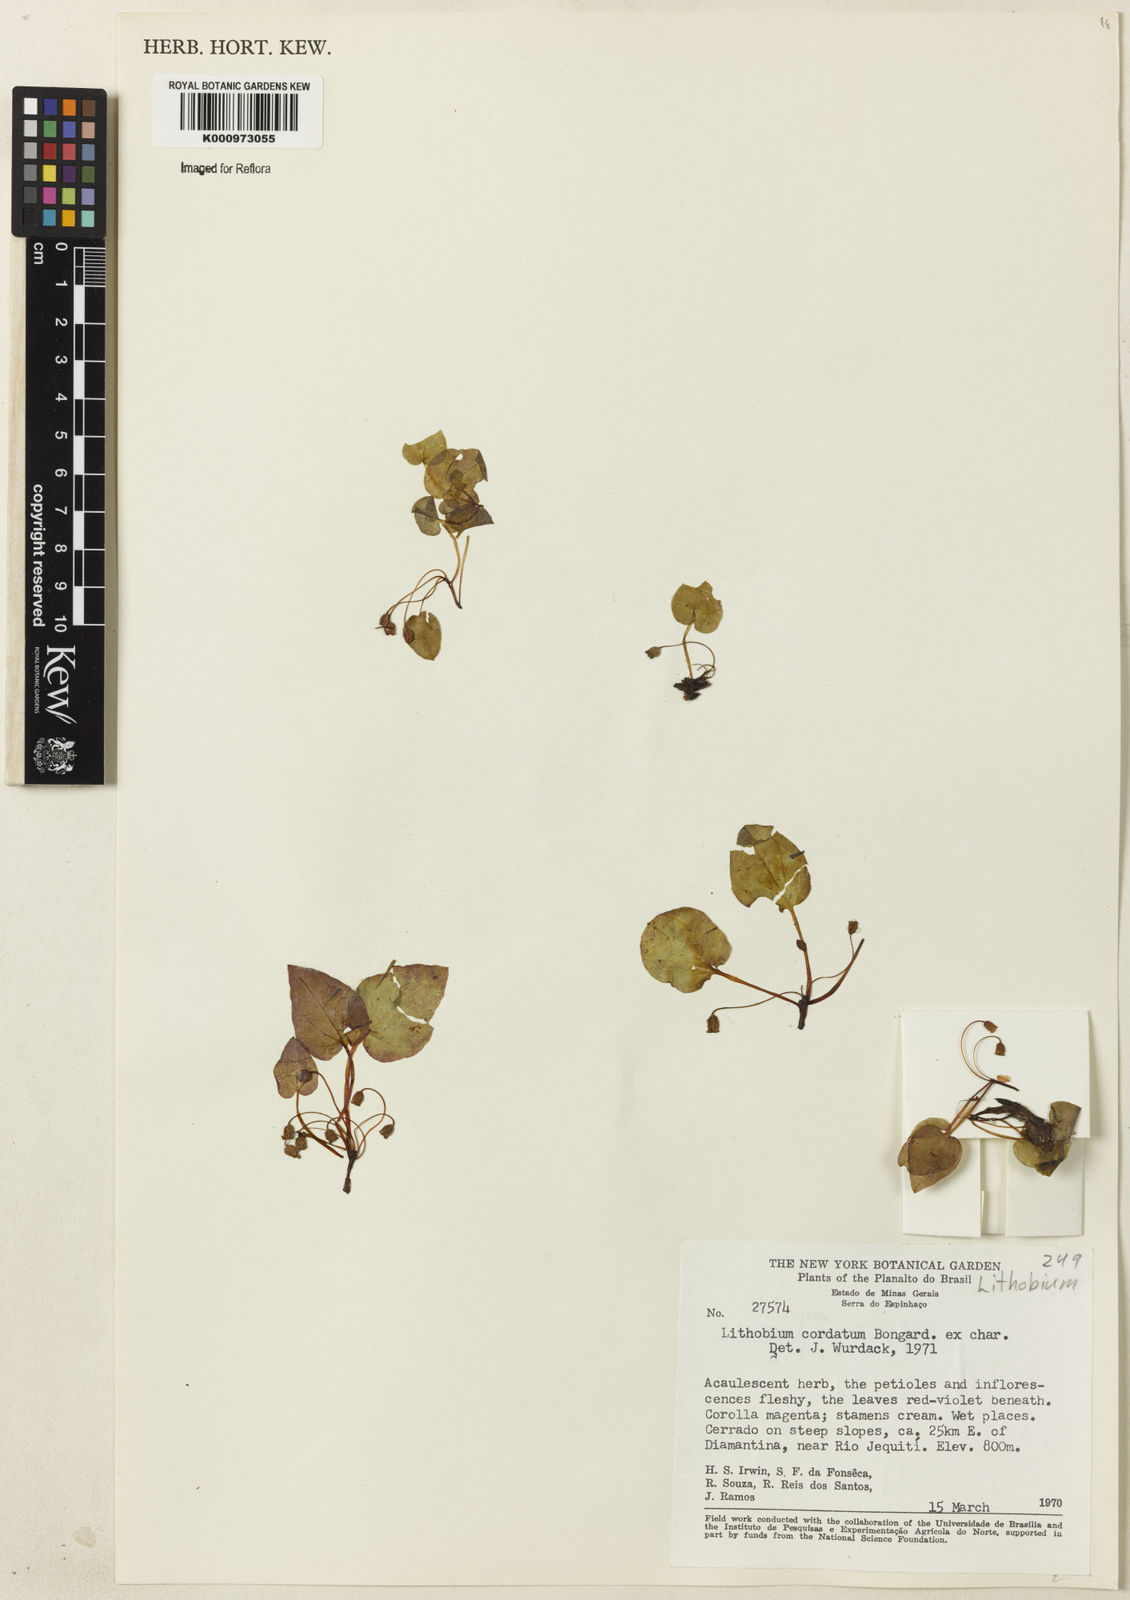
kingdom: Plantae
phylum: Tracheophyta
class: Magnoliopsida
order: Myrtales
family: Melastomataceae
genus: Lithobium
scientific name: Lithobium cordatum
